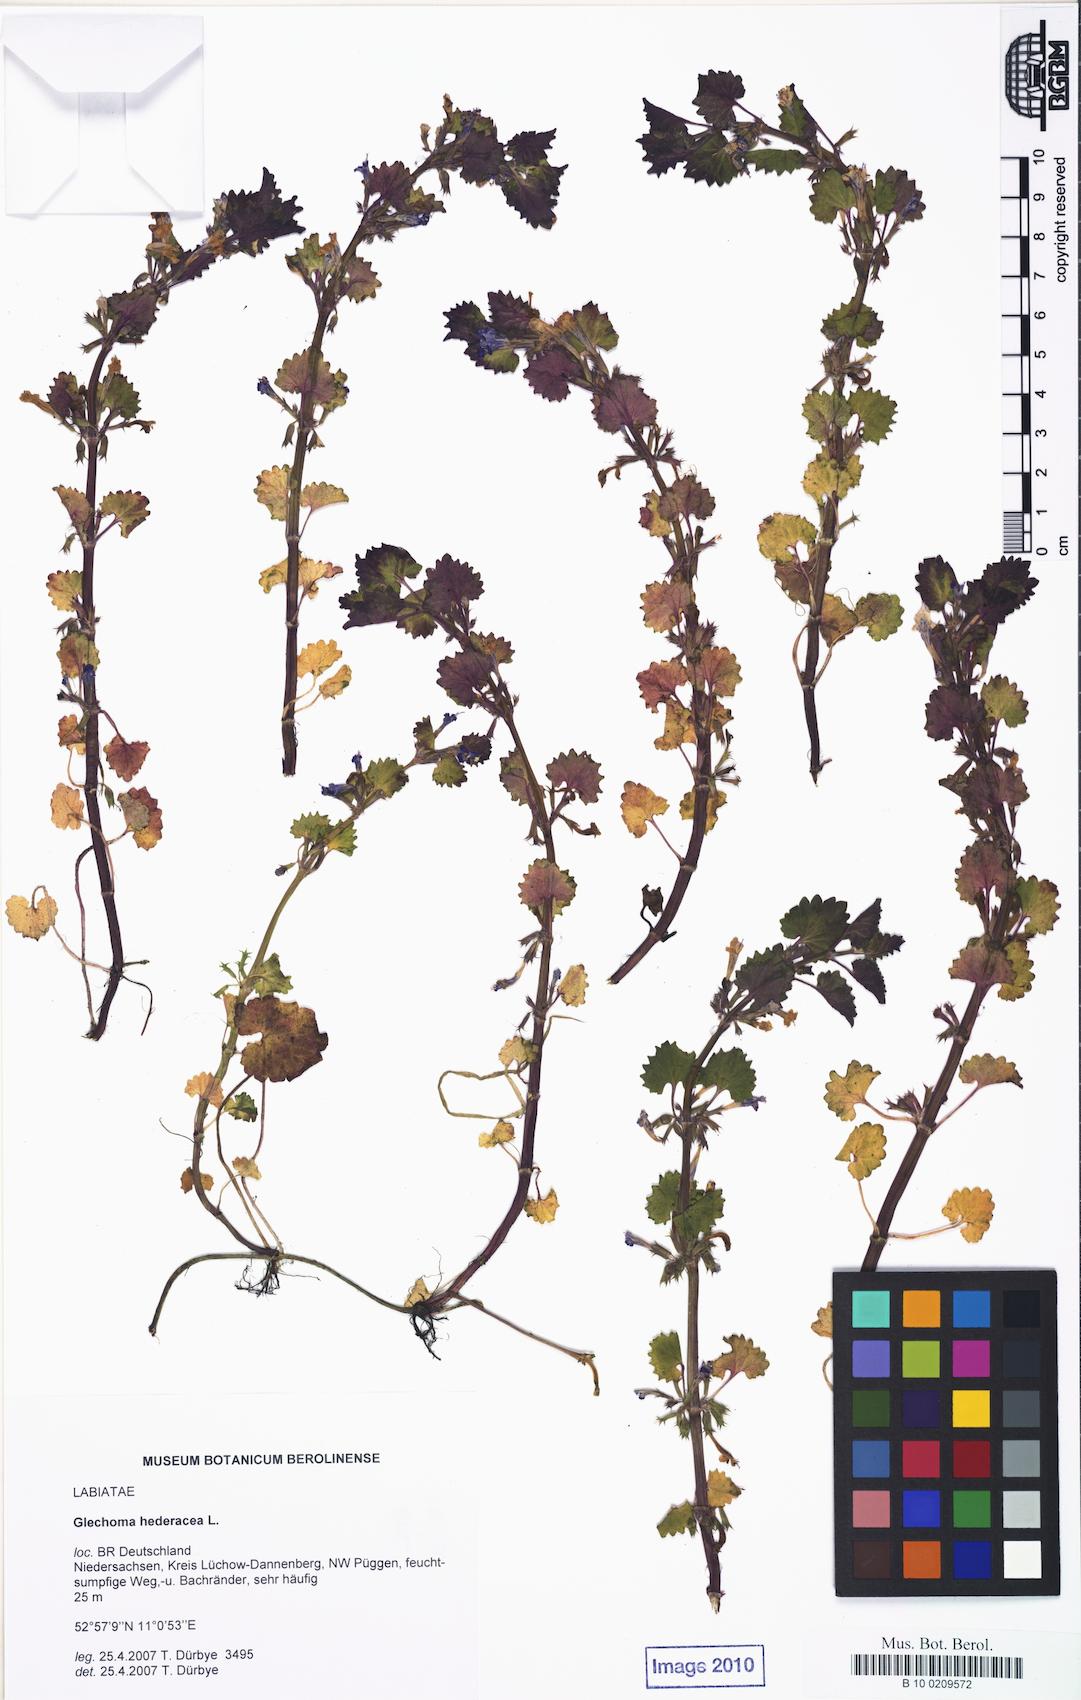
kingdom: Plantae
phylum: Tracheophyta
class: Magnoliopsida
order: Lamiales
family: Lamiaceae
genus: Glechoma
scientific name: Glechoma hederacea
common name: Ground ivy
